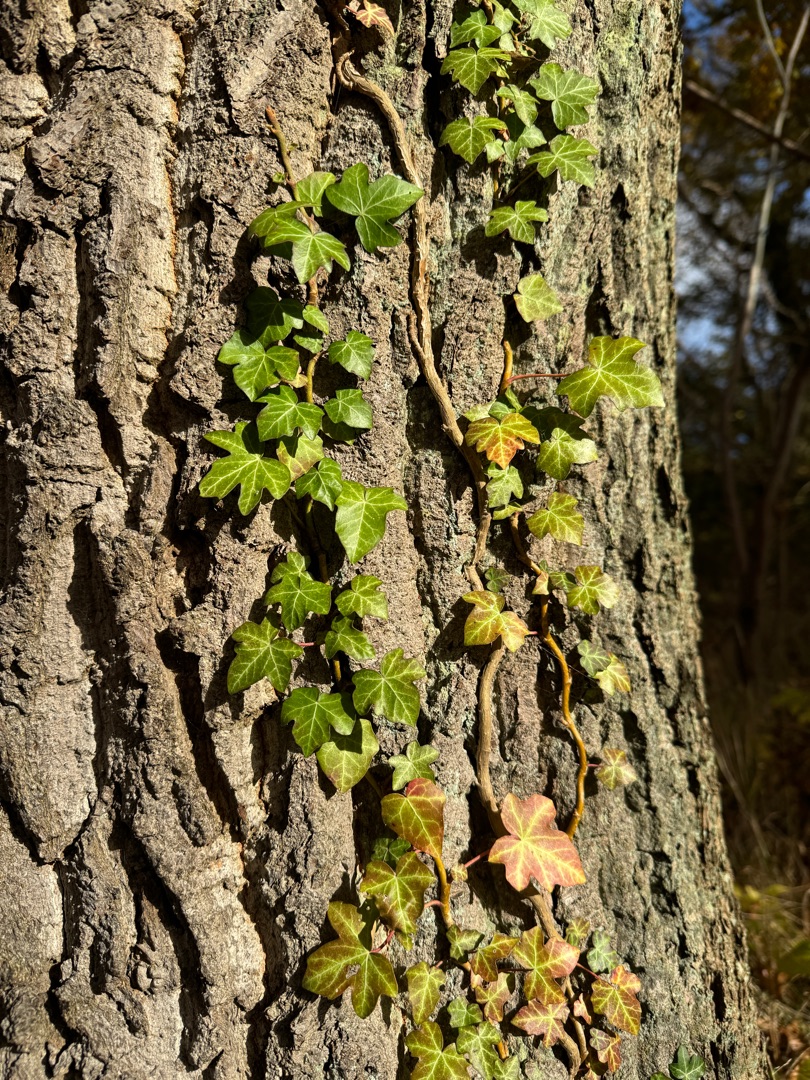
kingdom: Plantae
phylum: Tracheophyta
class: Magnoliopsida
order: Apiales
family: Araliaceae
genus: Hedera
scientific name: Hedera helix
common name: Vedbend
